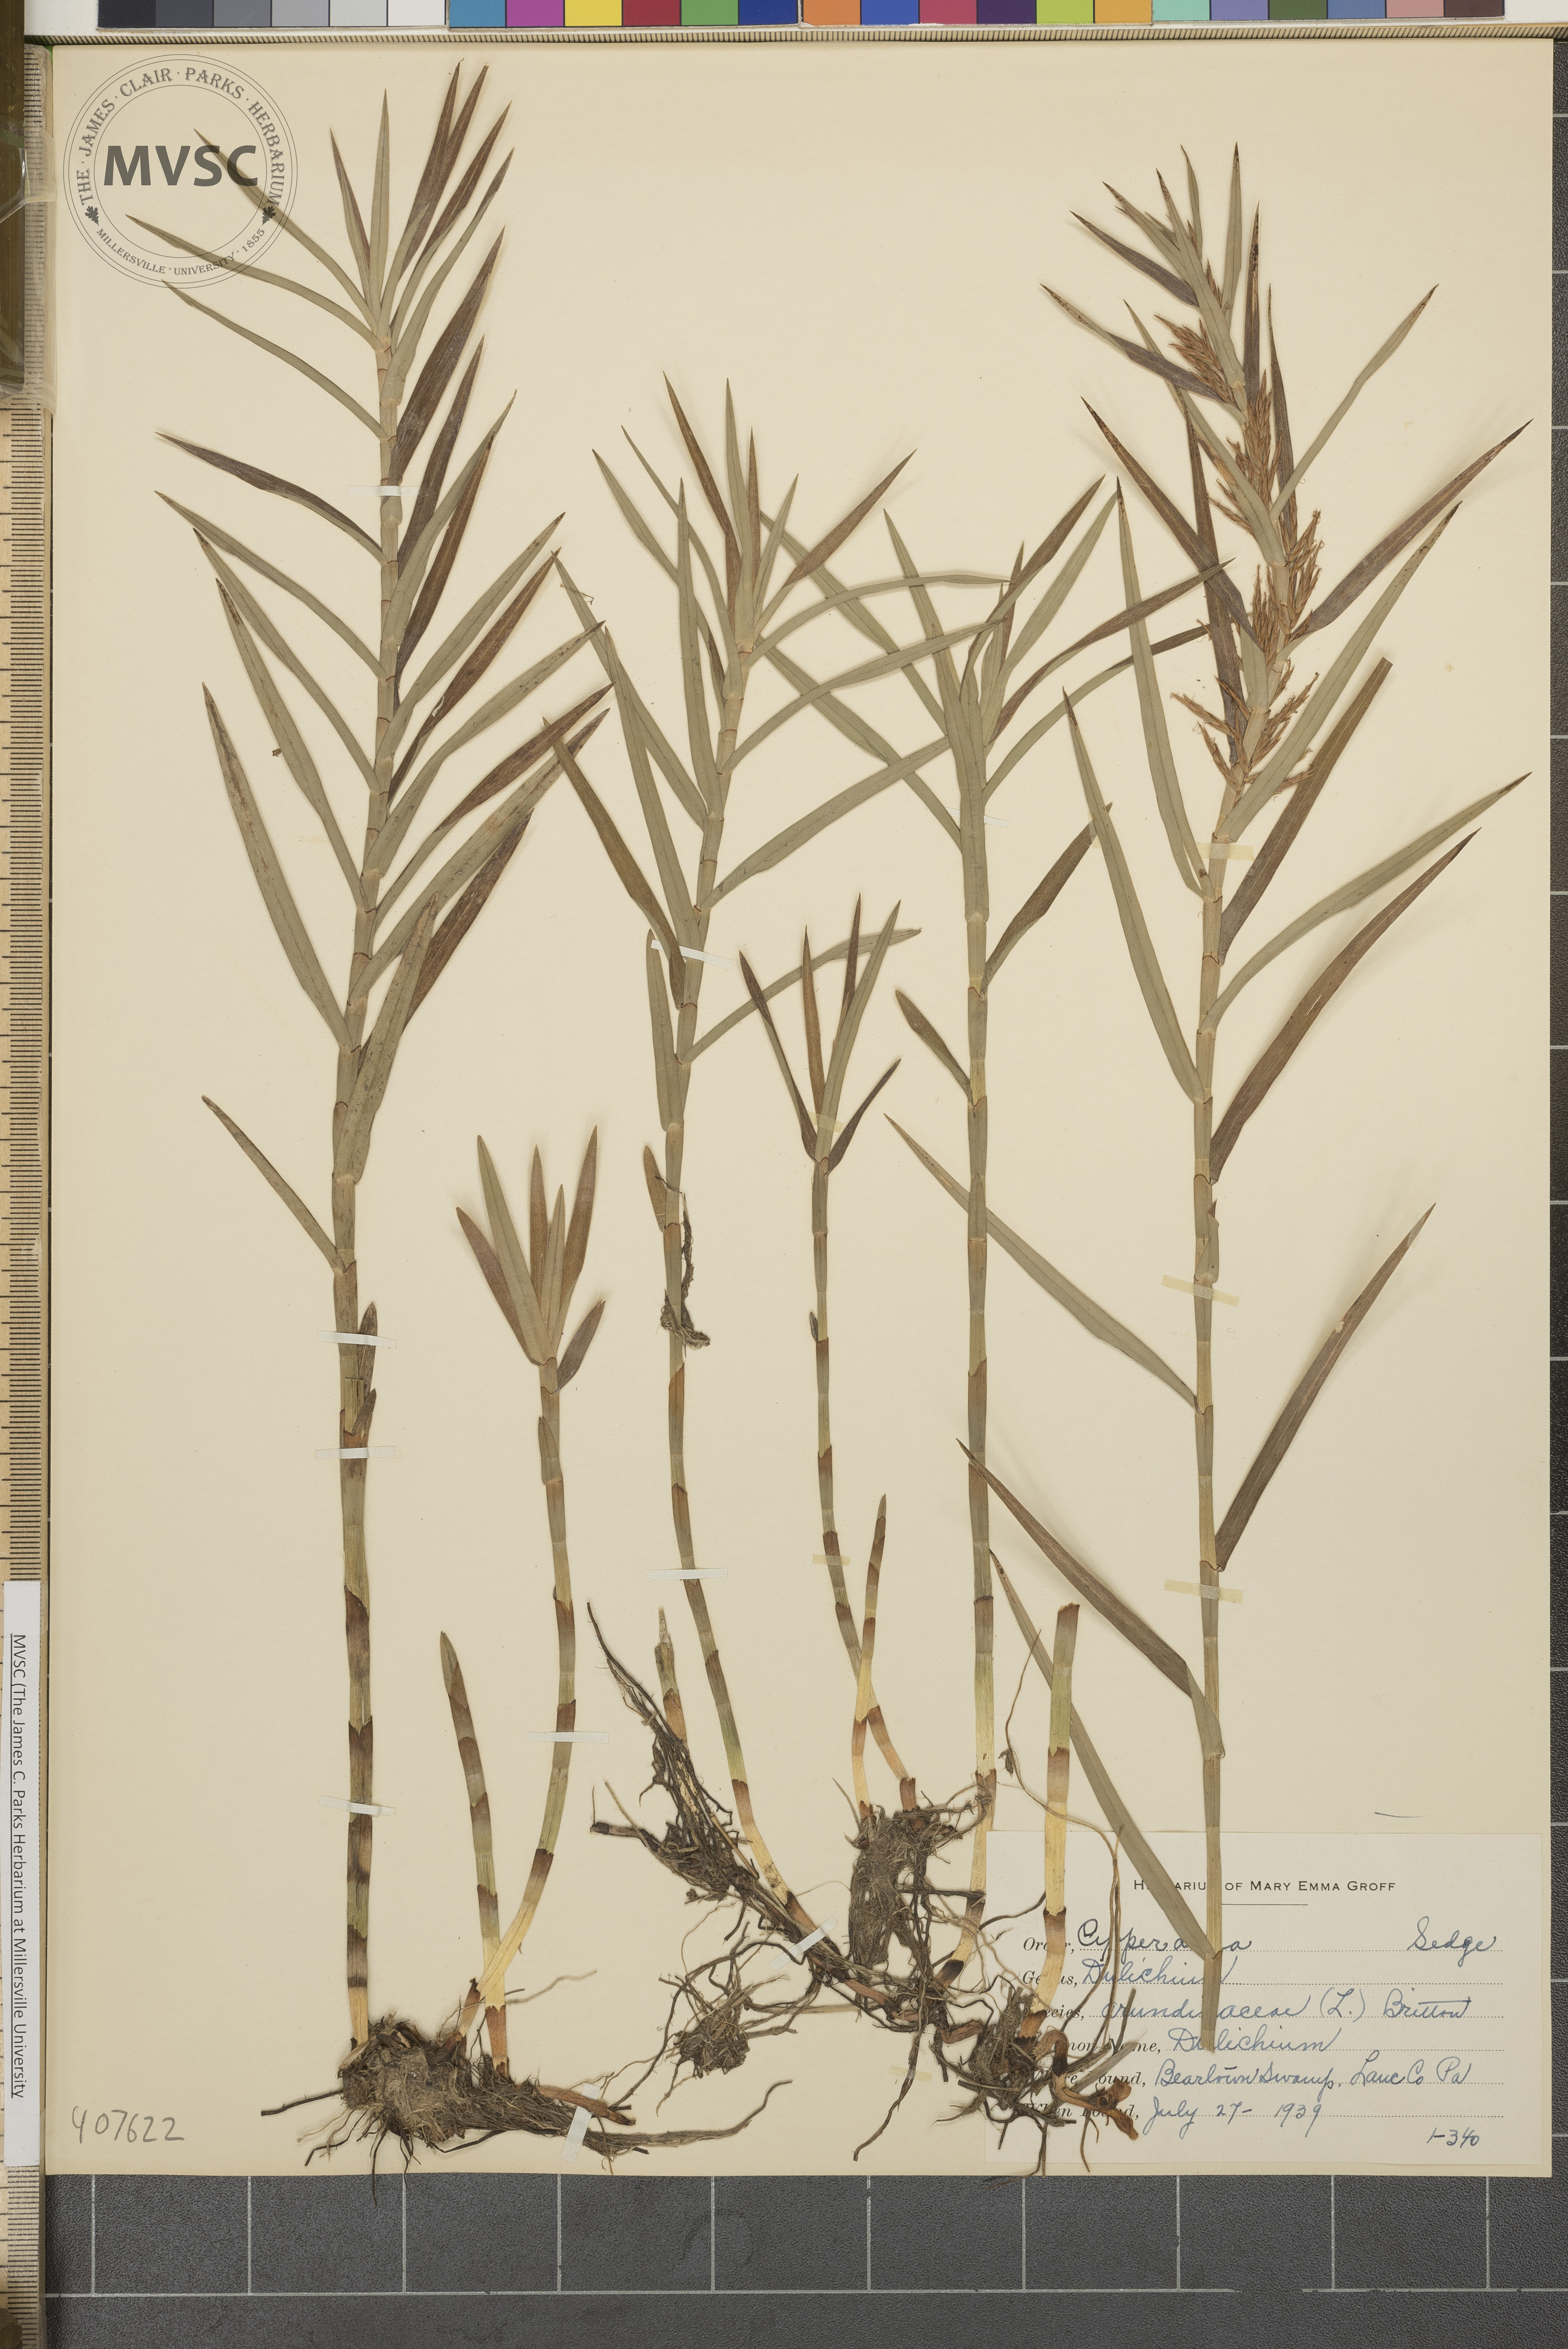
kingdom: Plantae
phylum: Tracheophyta
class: Liliopsida
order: Poales
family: Cyperaceae
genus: Dulichium
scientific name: Dulichium arundinaceum
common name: Dulichium
